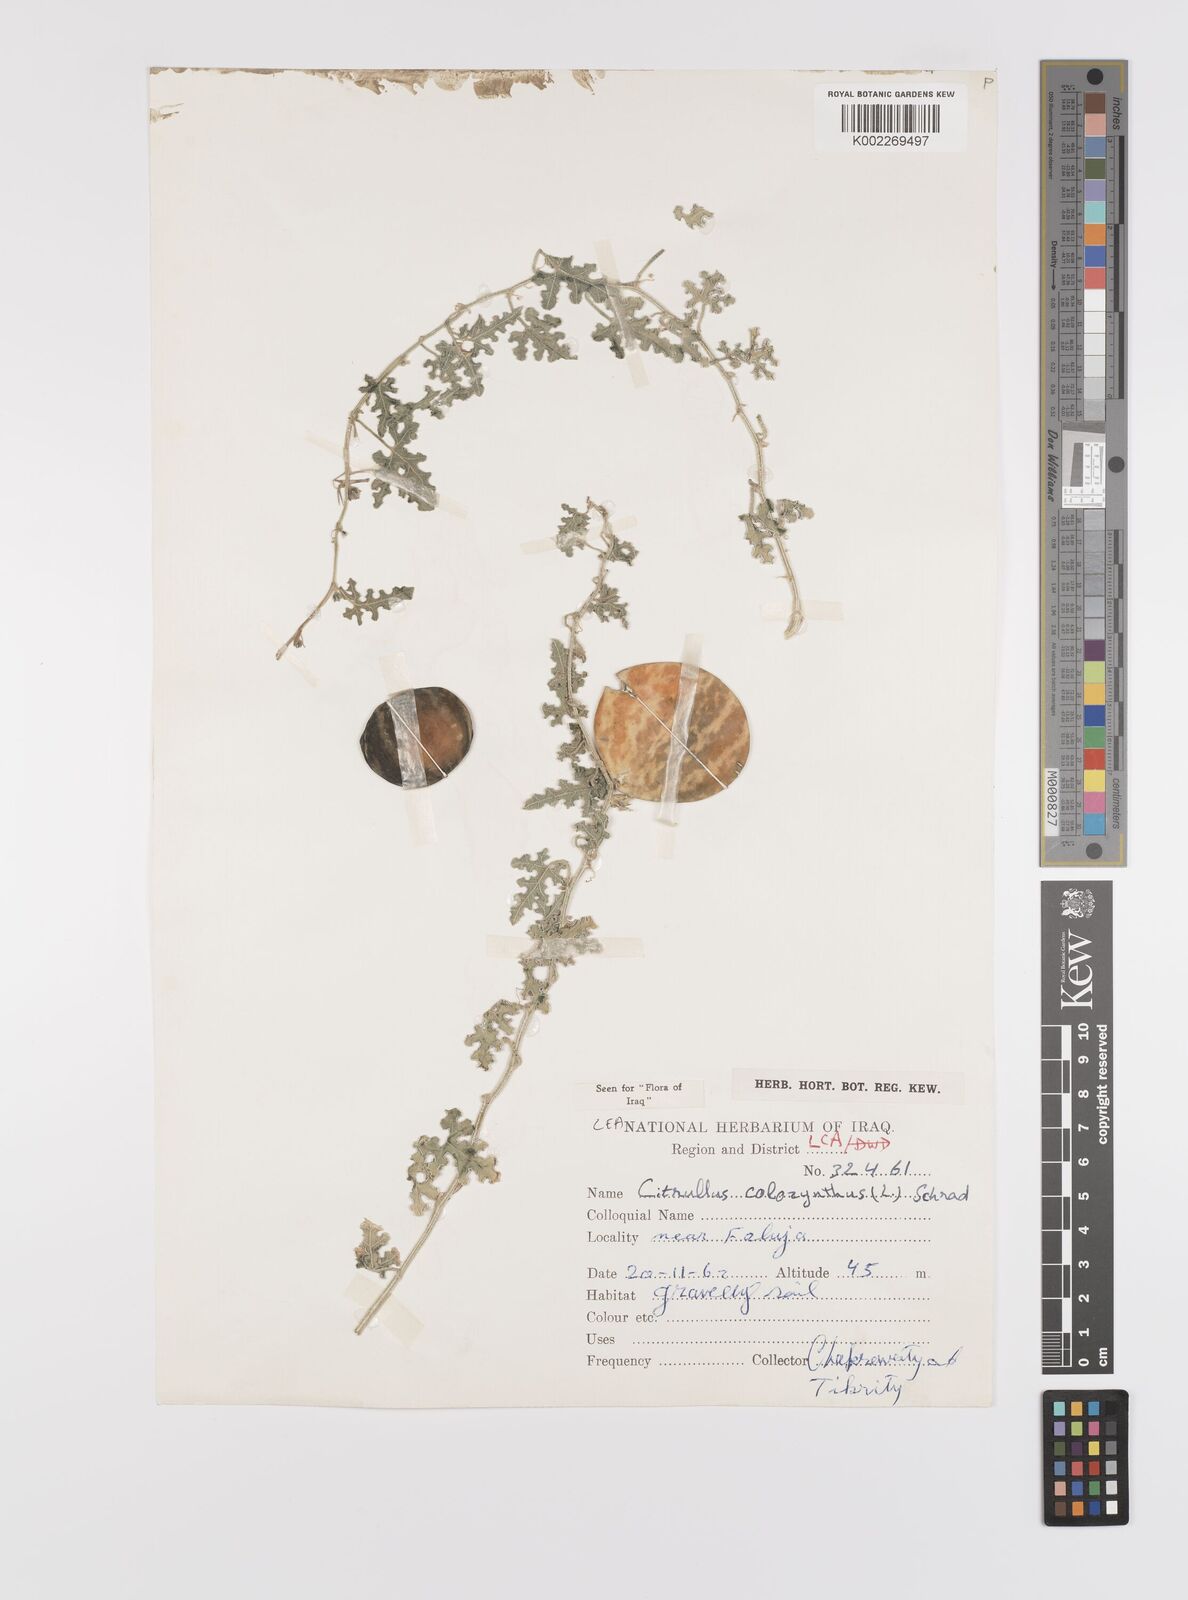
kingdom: Plantae
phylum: Tracheophyta
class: Magnoliopsida
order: Cucurbitales
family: Cucurbitaceae
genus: Citrullus
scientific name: Citrullus colocynthis
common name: Colocynth
